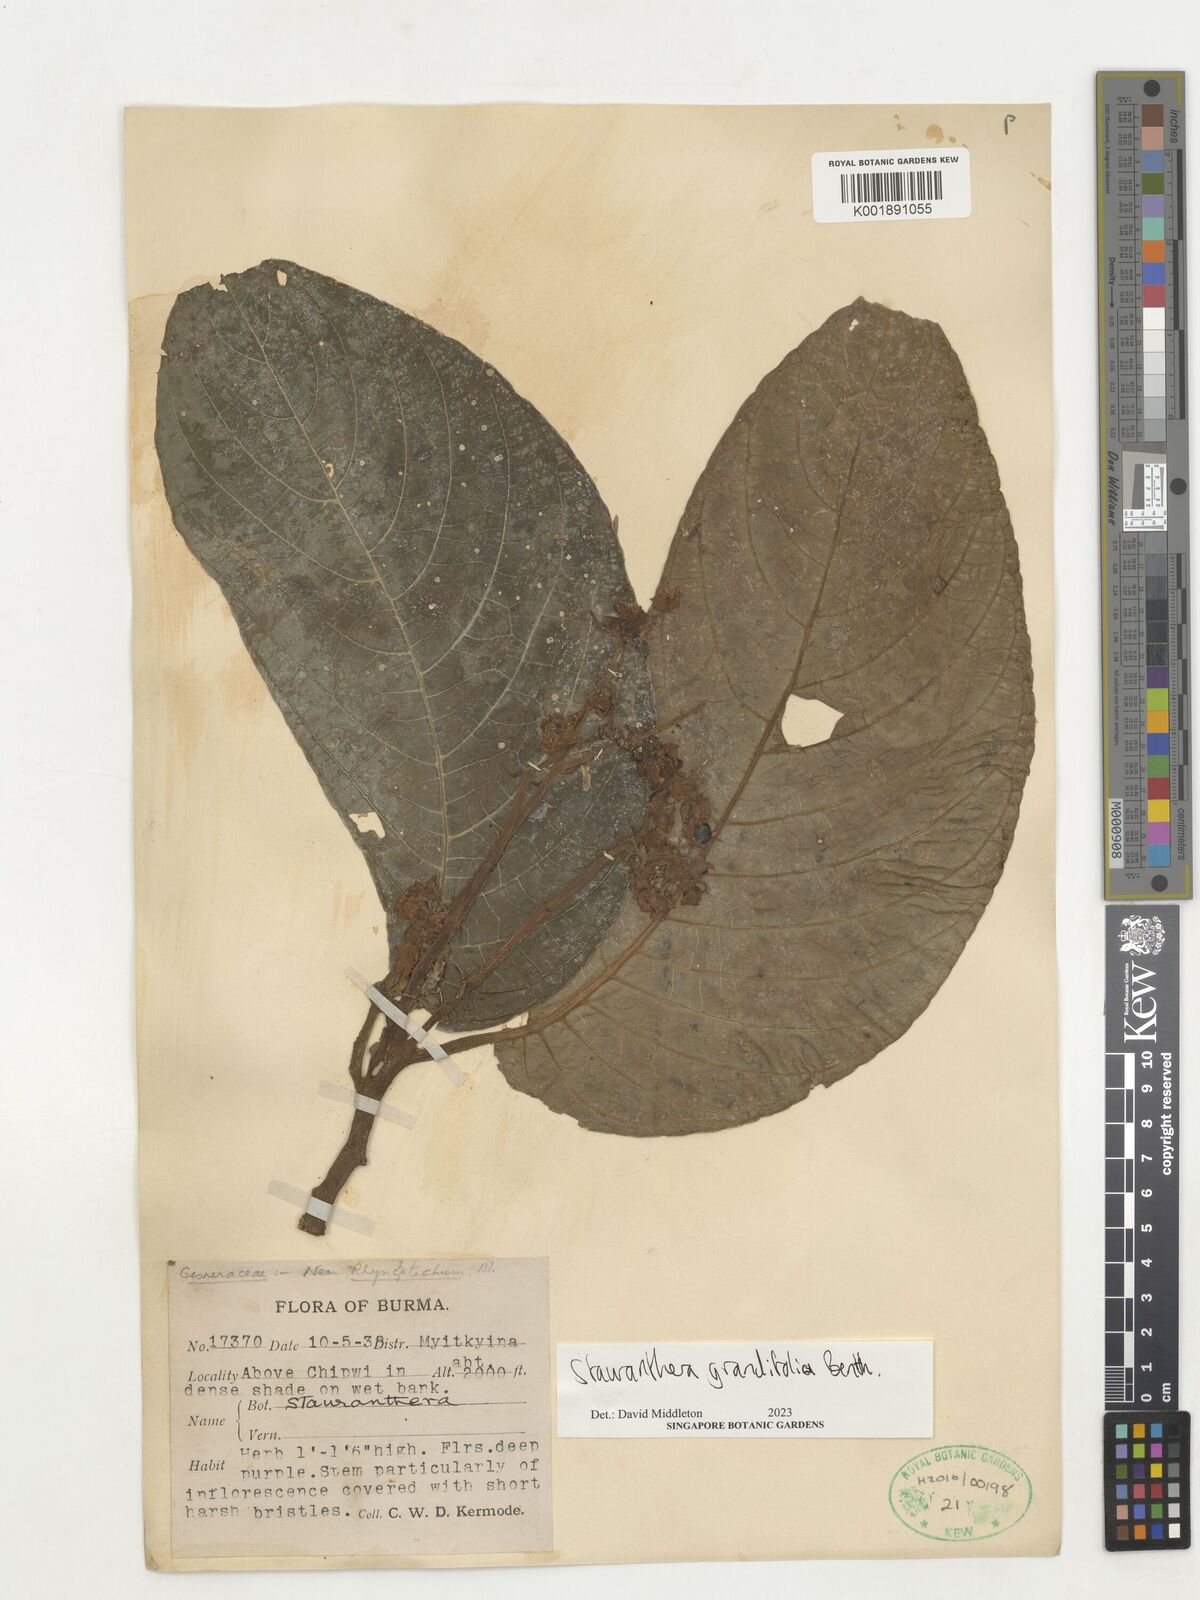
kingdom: Plantae
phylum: Tracheophyta
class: Magnoliopsida
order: Lamiales
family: Gesneriaceae
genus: Stauranthera
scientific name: Stauranthera grandifolia
